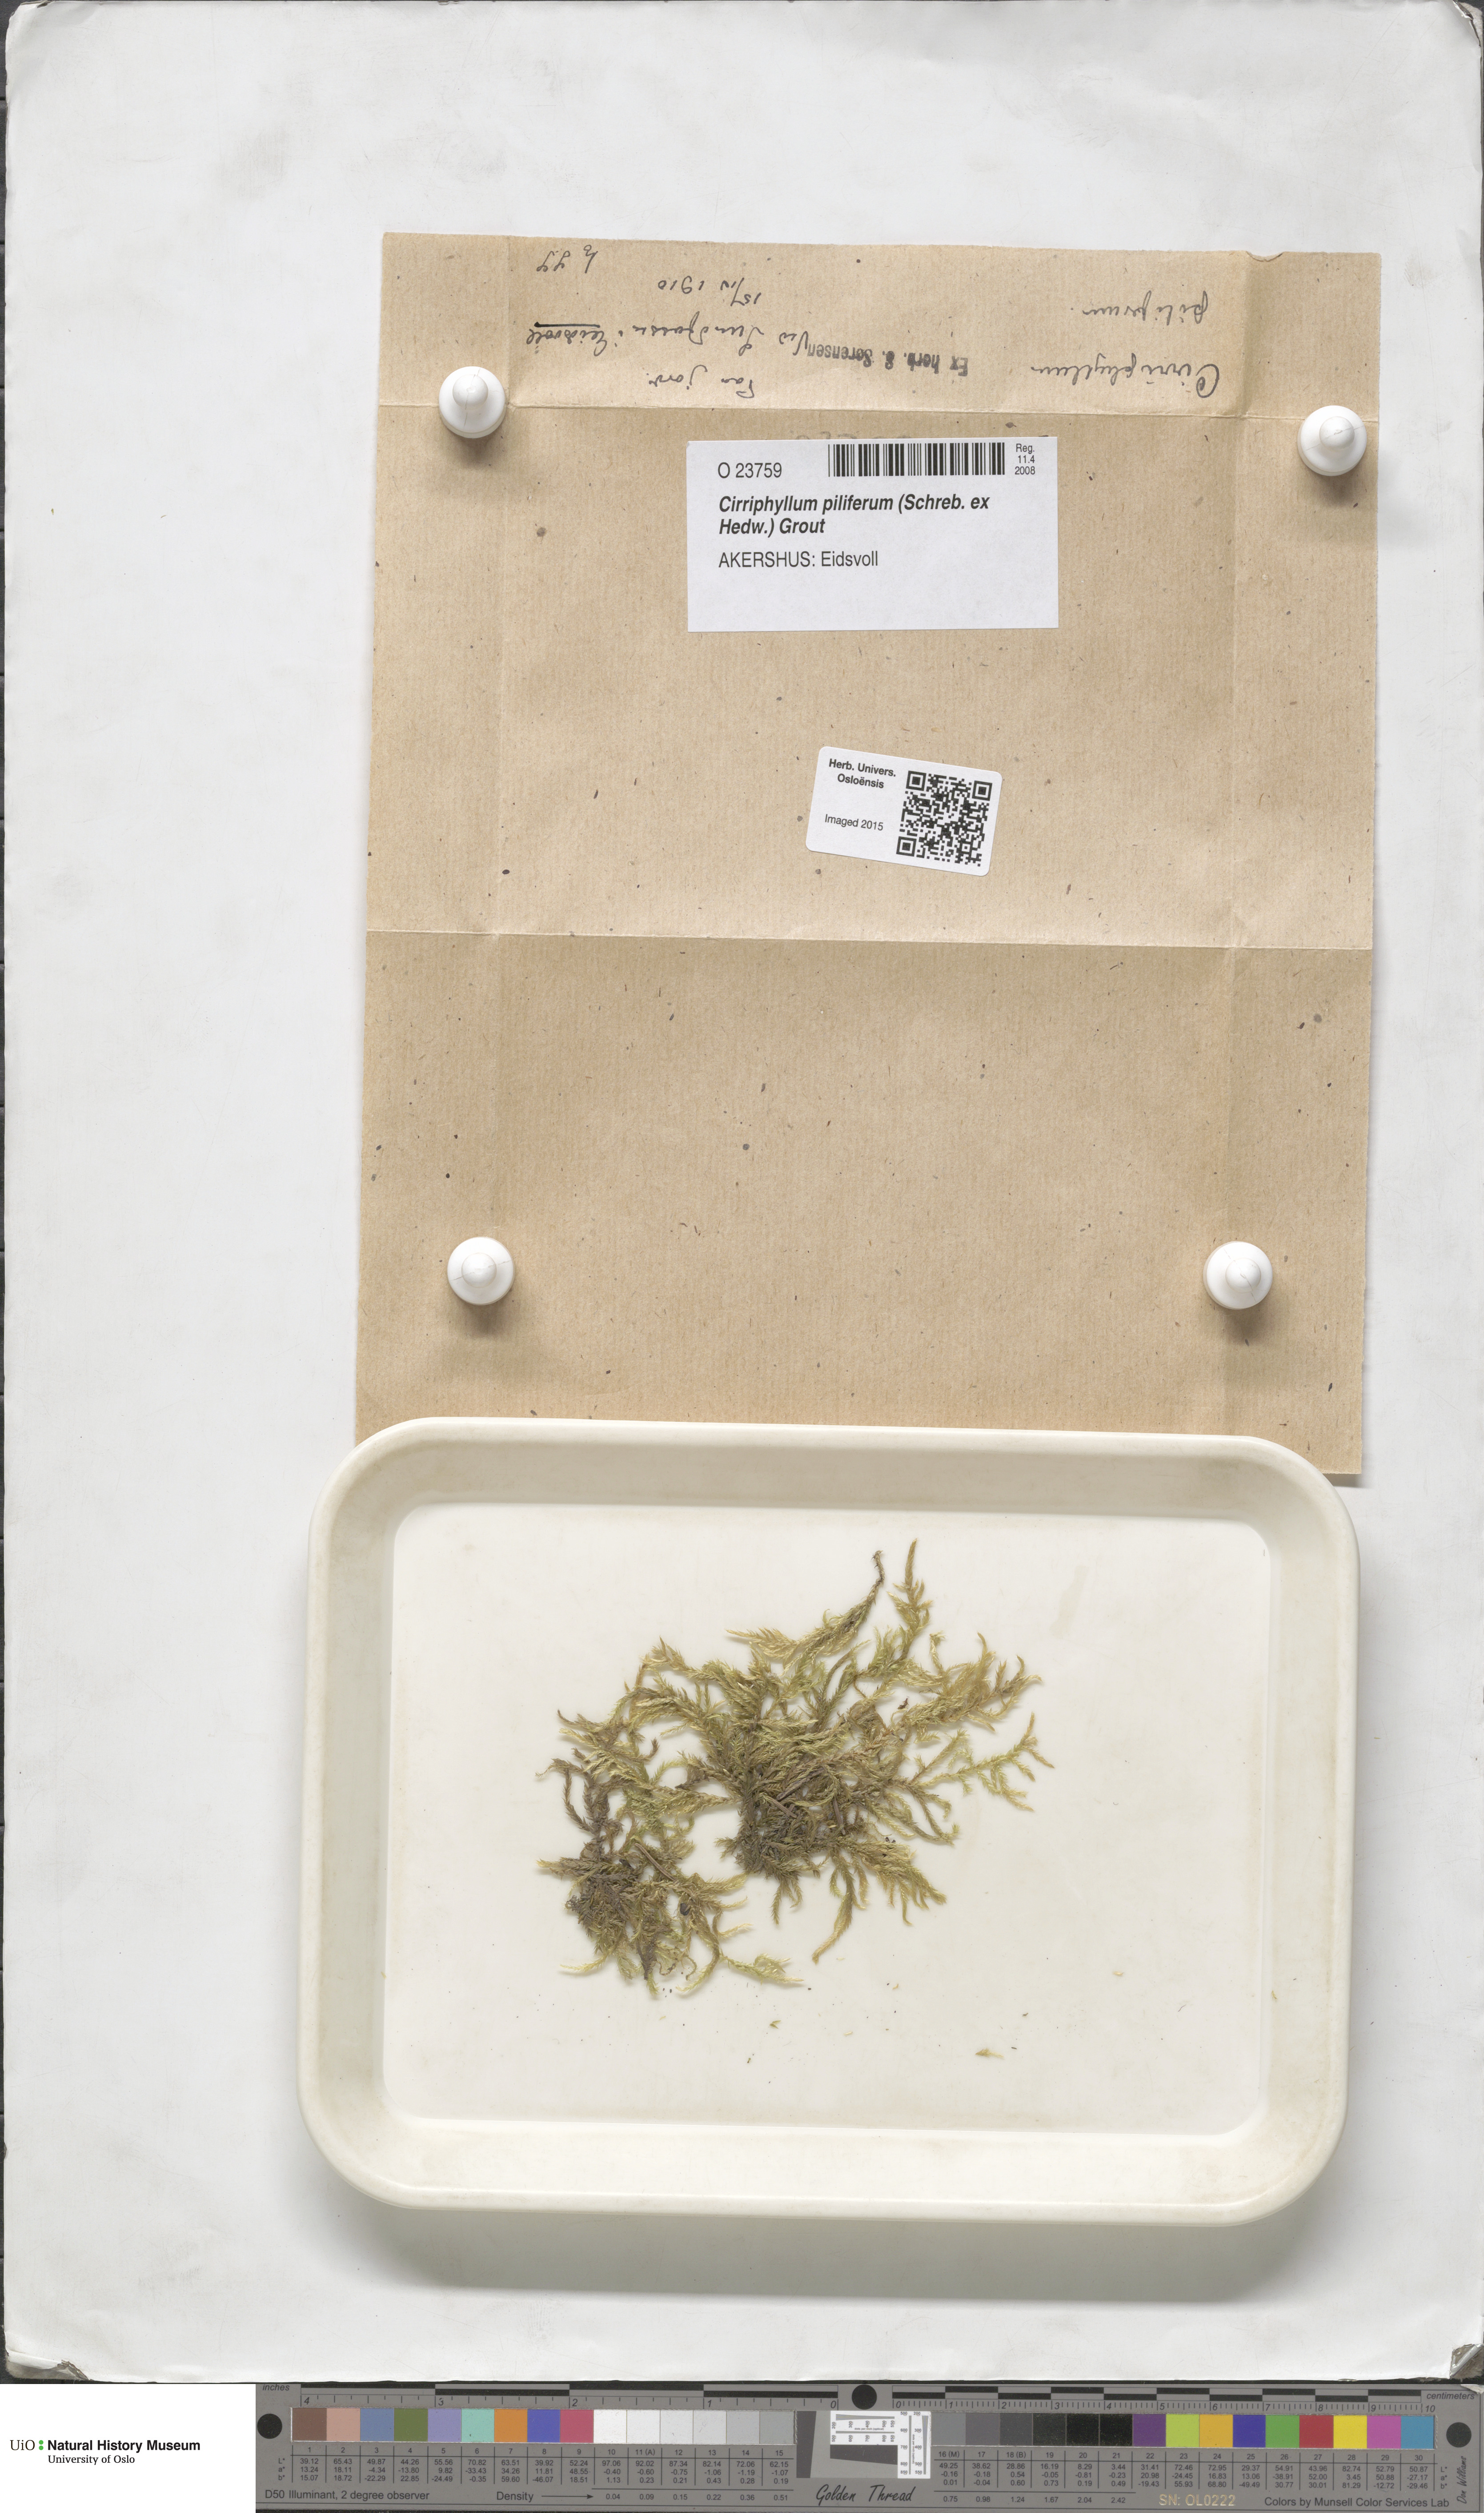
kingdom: Plantae
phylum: Bryophyta
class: Bryopsida
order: Hypnales
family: Brachytheciaceae
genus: Cirriphyllum
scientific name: Cirriphyllum piliferum
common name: Hair-pointed moss
